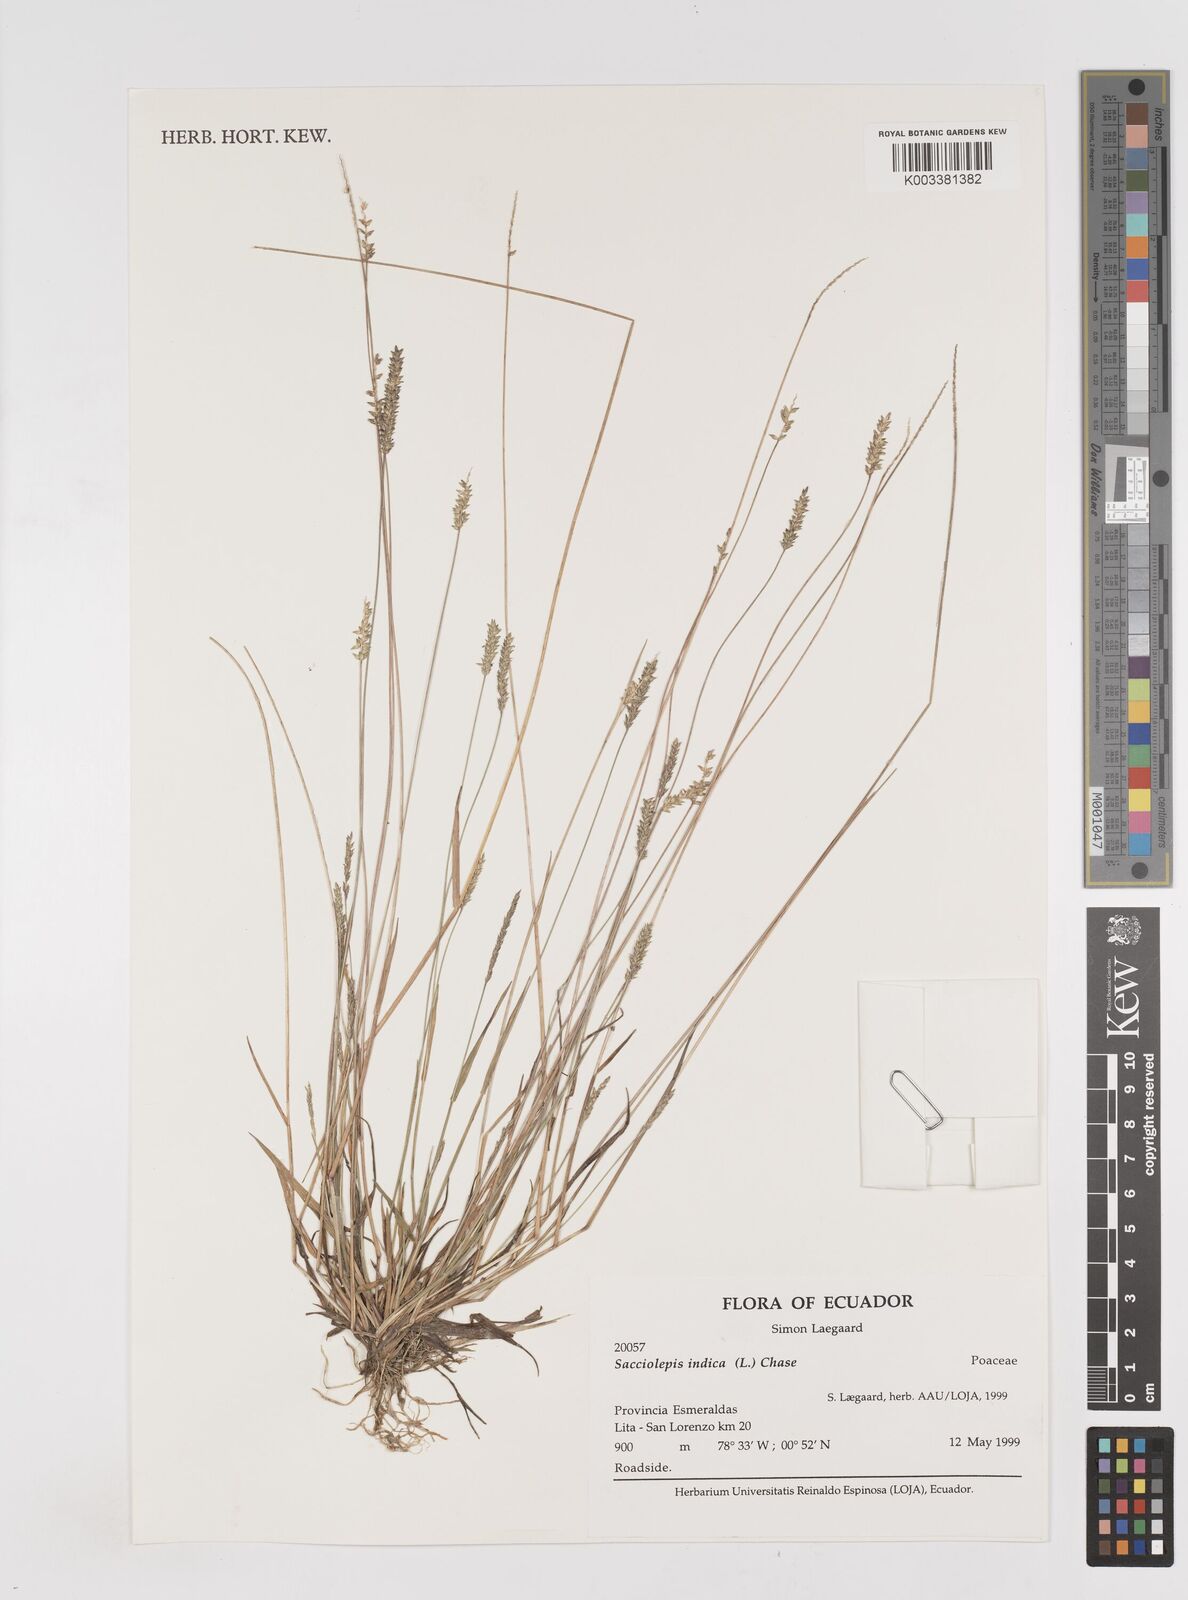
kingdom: Plantae
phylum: Tracheophyta
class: Liliopsida
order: Poales
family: Poaceae
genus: Sacciolepis
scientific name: Sacciolepis indica
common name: Glenwoodgrass
